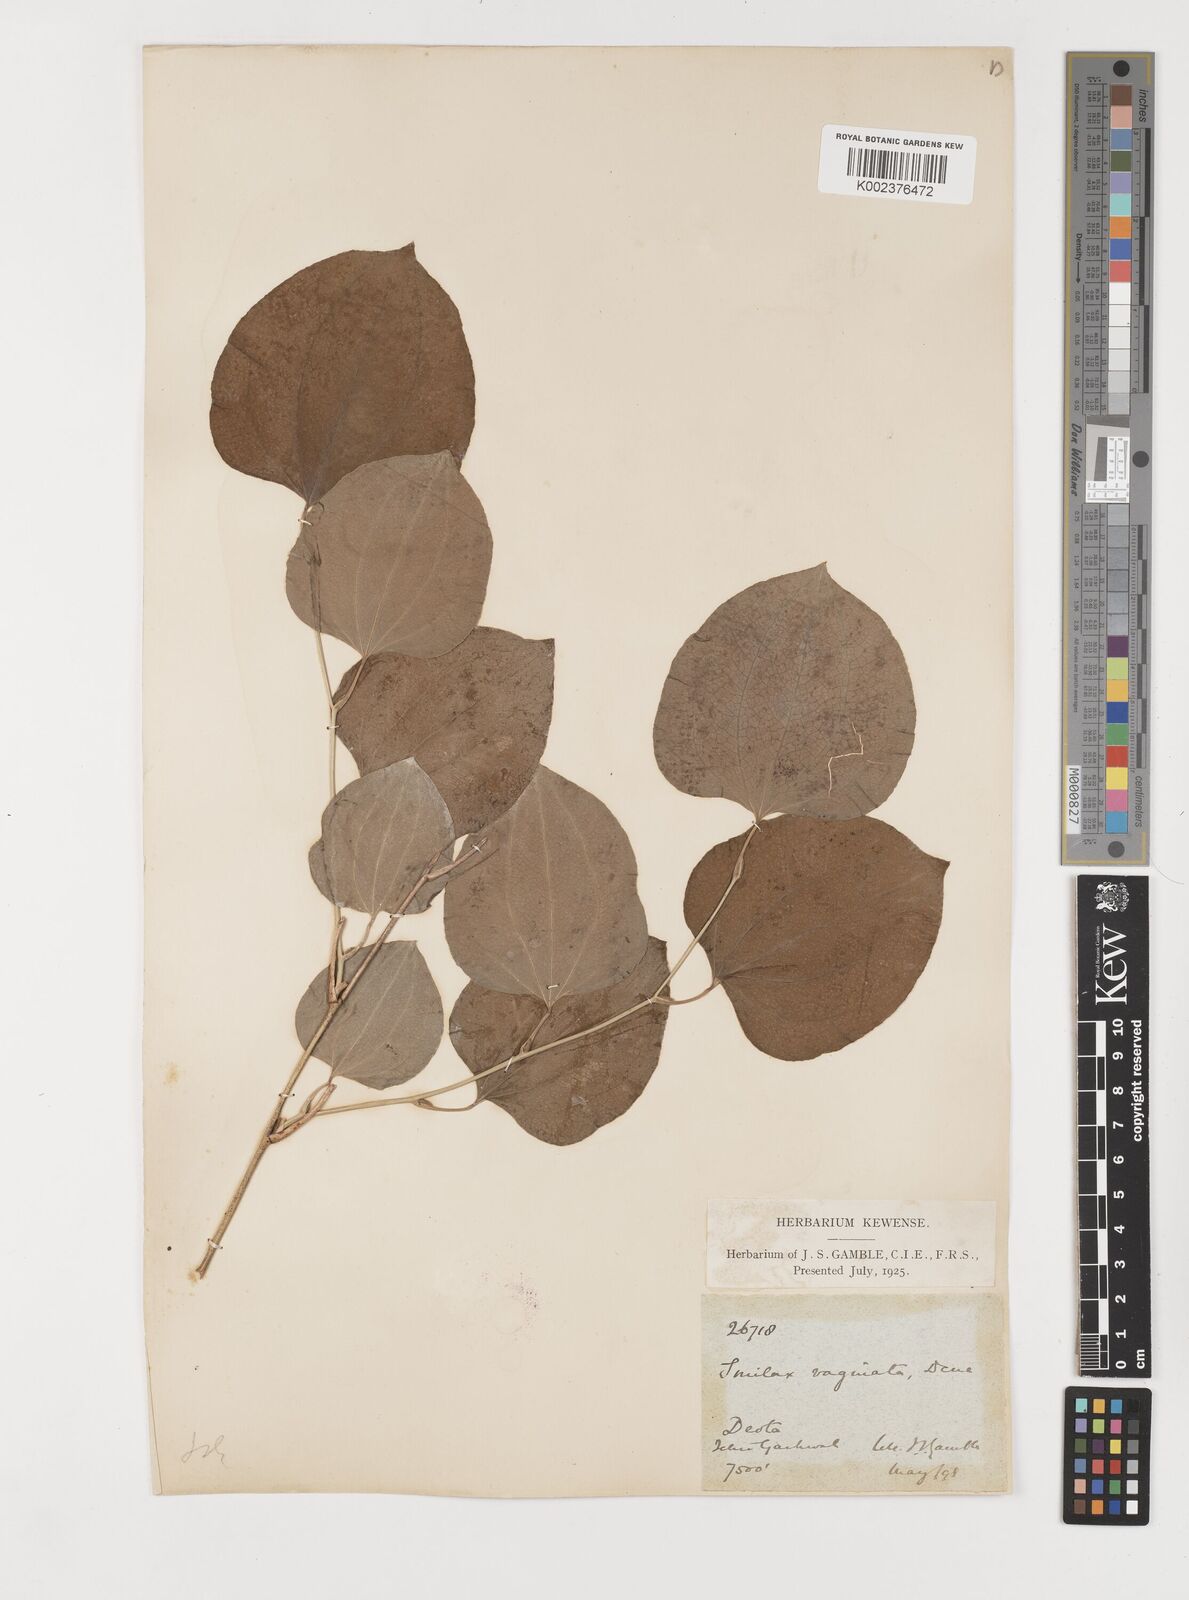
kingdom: Plantae
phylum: Tracheophyta
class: Liliopsida
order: Liliales
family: Smilacaceae
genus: Smilax
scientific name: Smilax vaginata
